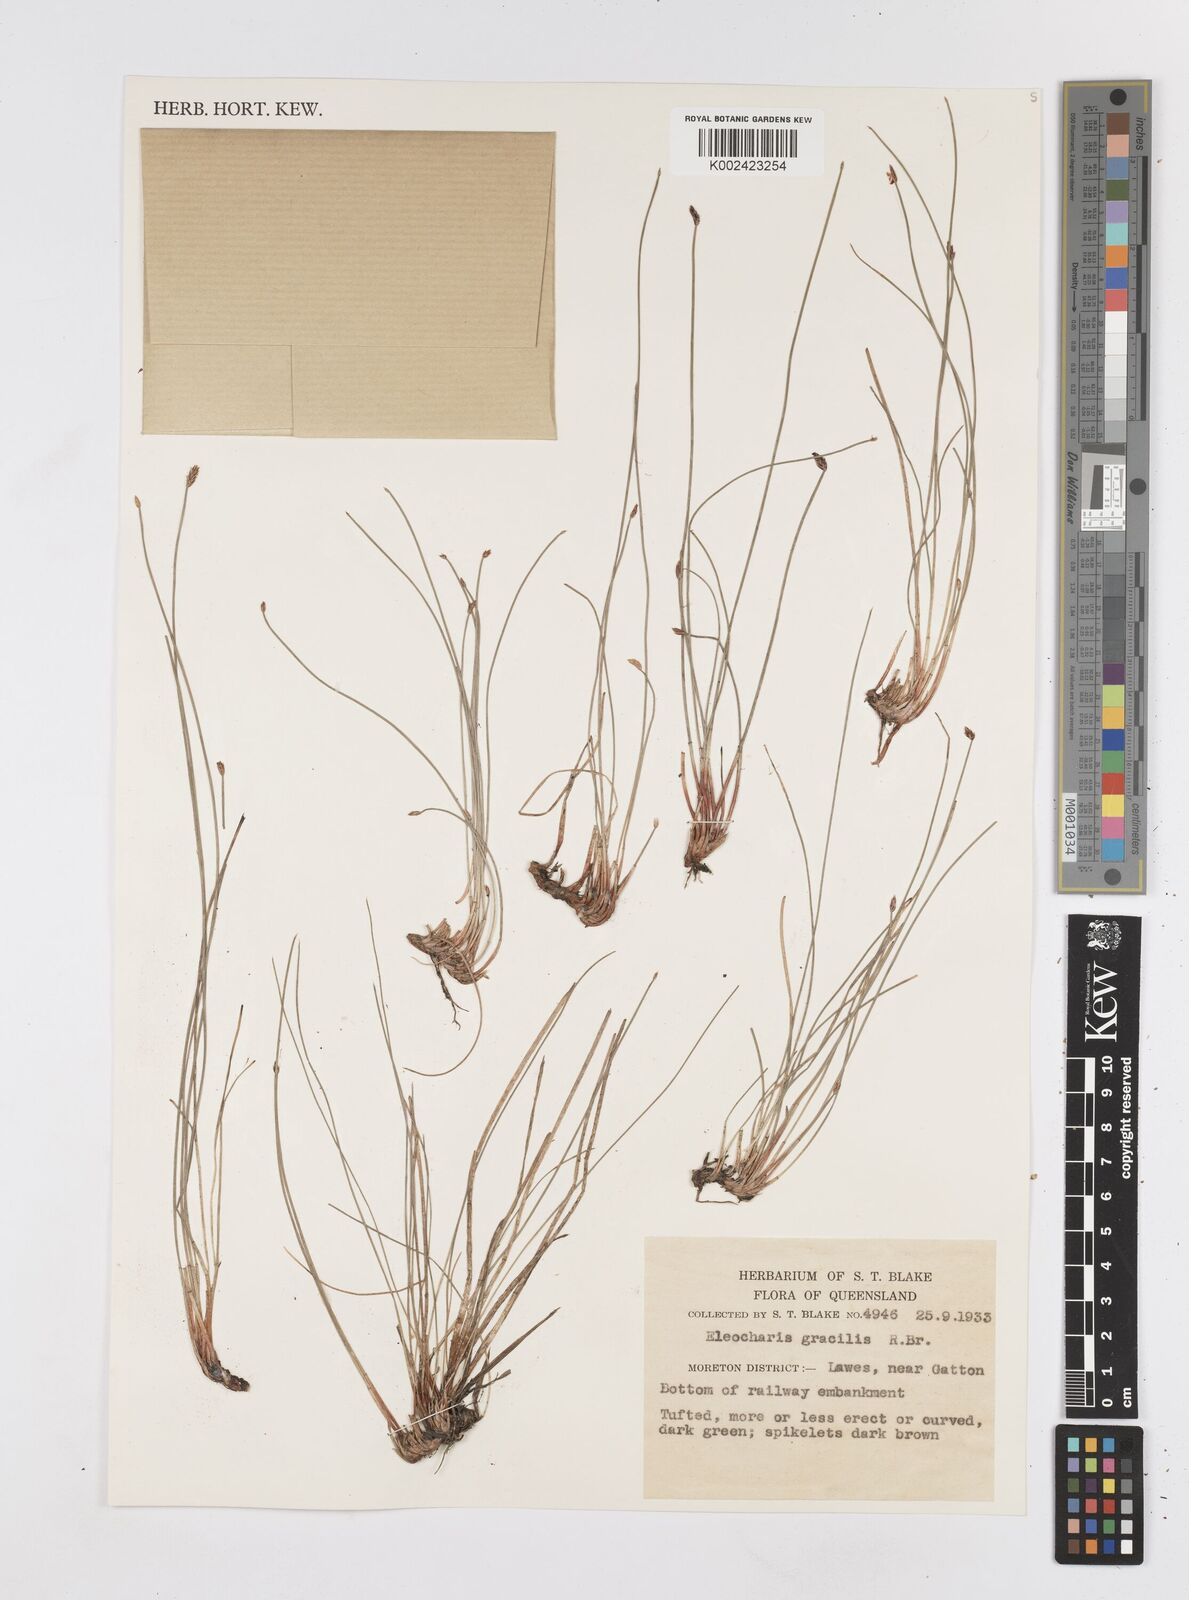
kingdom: Plantae
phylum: Tracheophyta
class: Liliopsida
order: Poales
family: Cyperaceae
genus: Eleocharis
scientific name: Eleocharis multicaulis
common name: Many-stalked spike-rush
